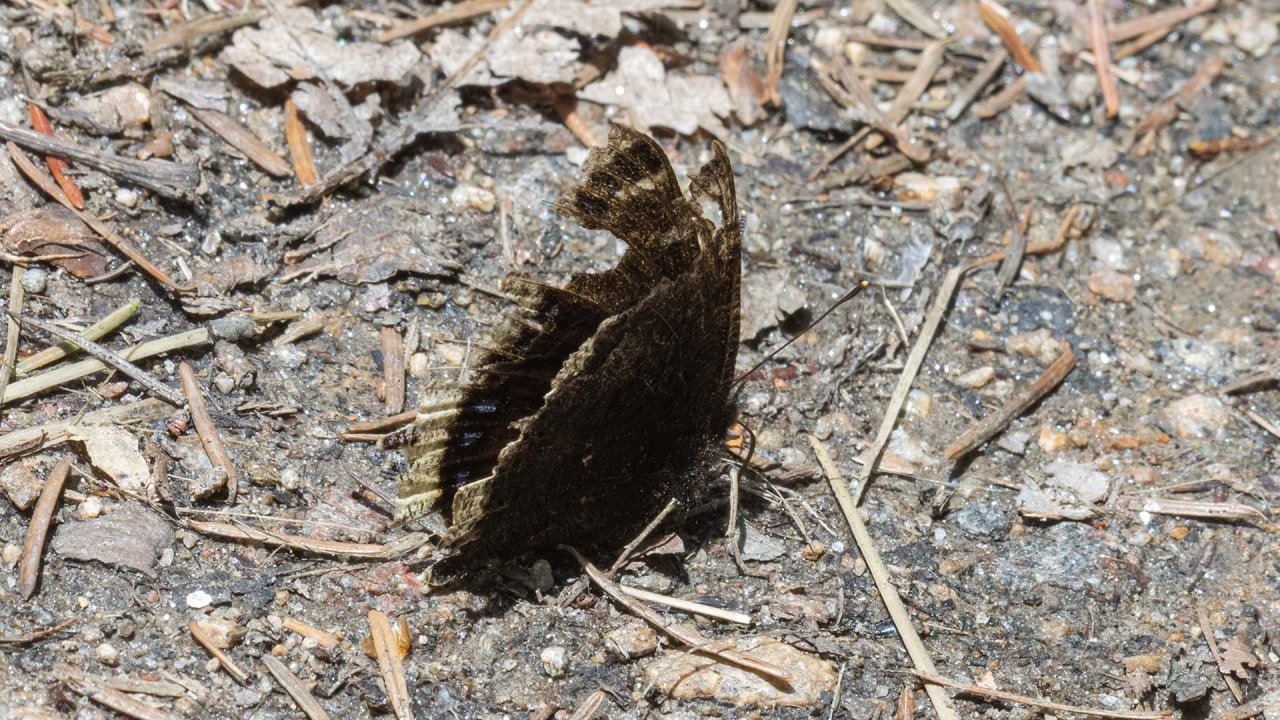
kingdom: Animalia
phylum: Arthropoda
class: Insecta
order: Lepidoptera
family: Nymphalidae
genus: Nymphalis
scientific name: Nymphalis antiopa
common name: Mourning Cloak
